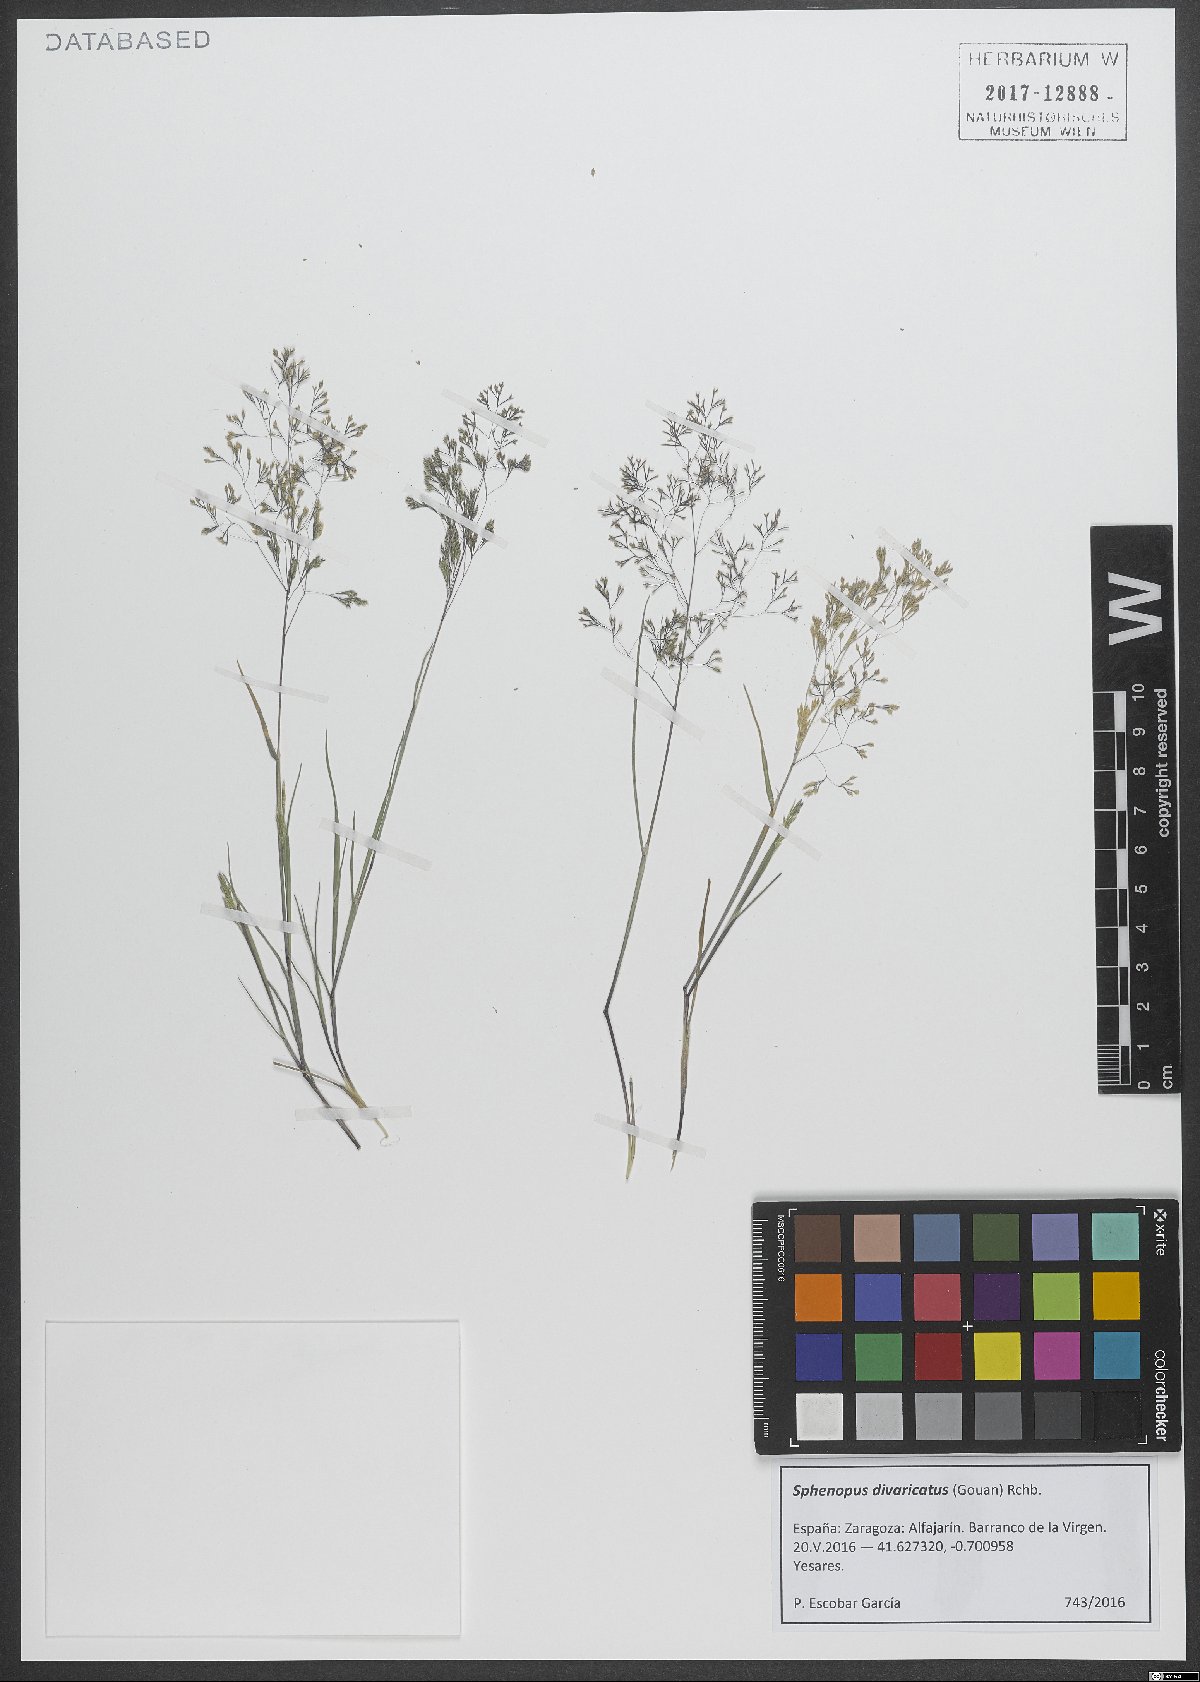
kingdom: Plantae
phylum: Tracheophyta
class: Liliopsida
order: Poales
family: Poaceae
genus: Sphenopus
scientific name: Sphenopus divaricatus
